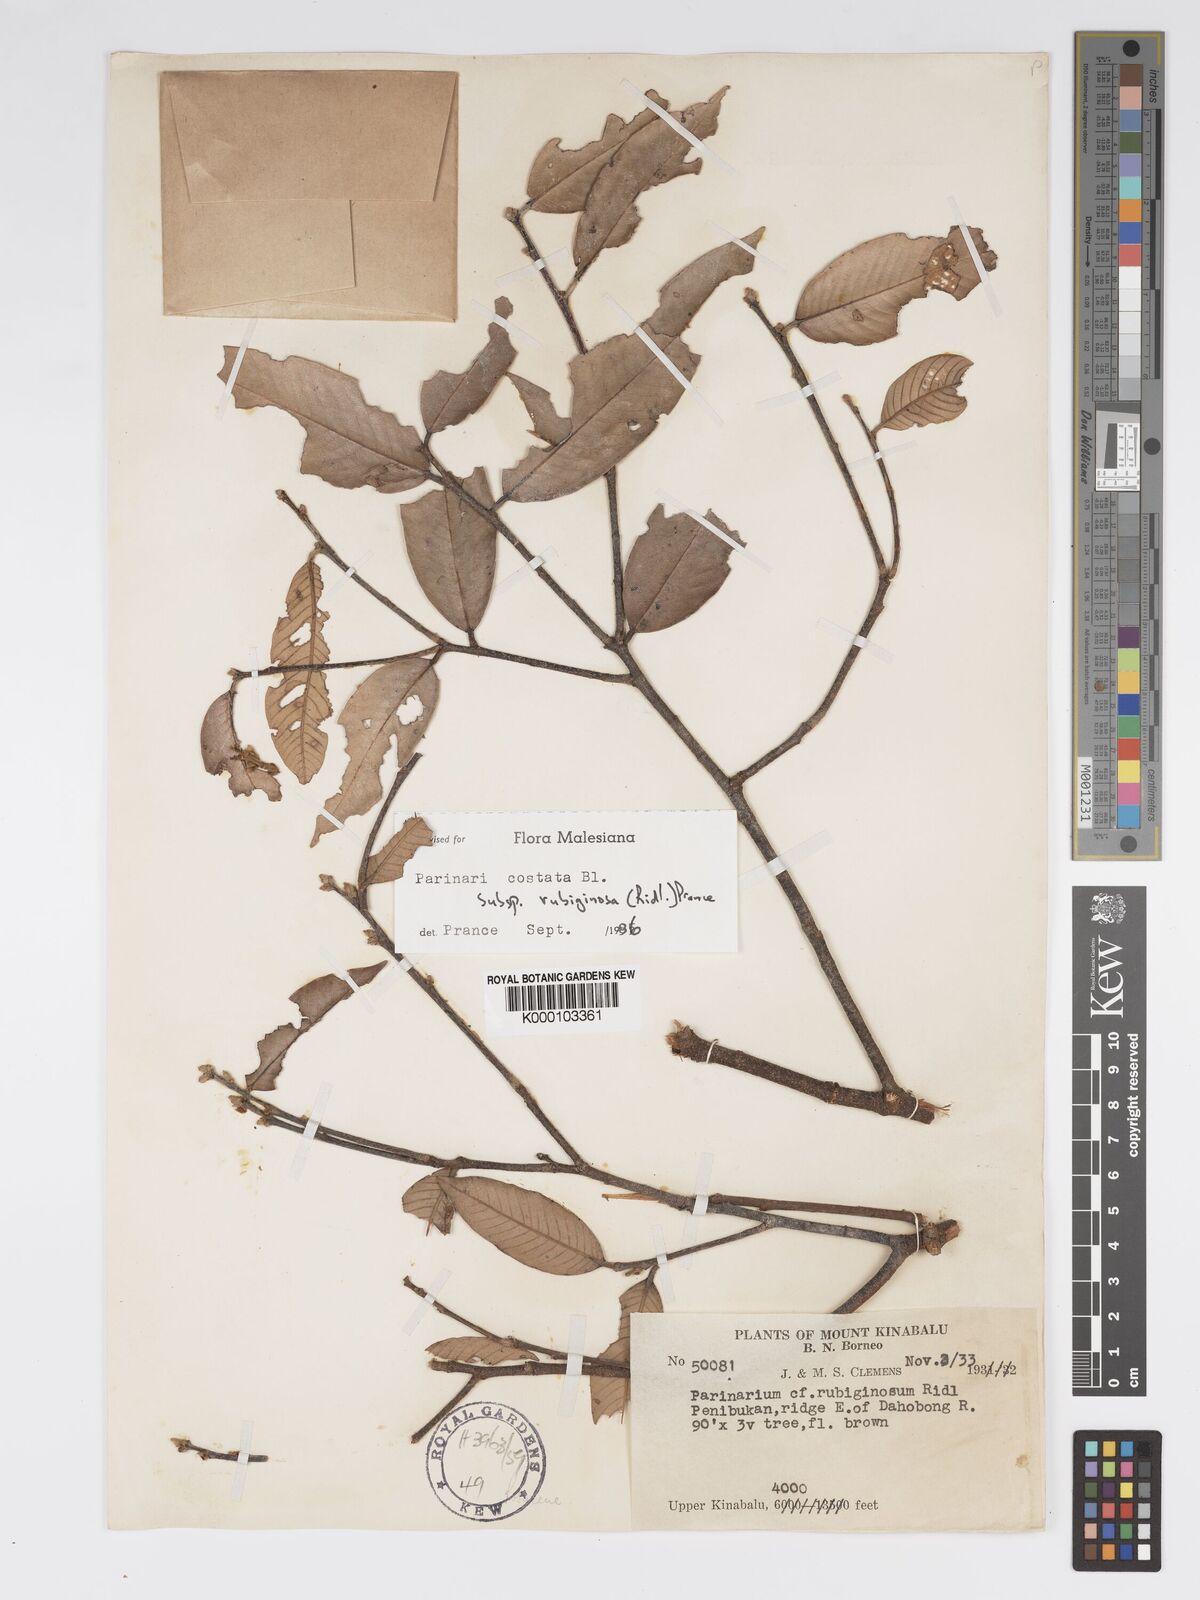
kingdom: Plantae
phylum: Tracheophyta
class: Magnoliopsida
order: Malpighiales
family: Chrysobalanaceae
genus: Parinari
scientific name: Parinari costata
